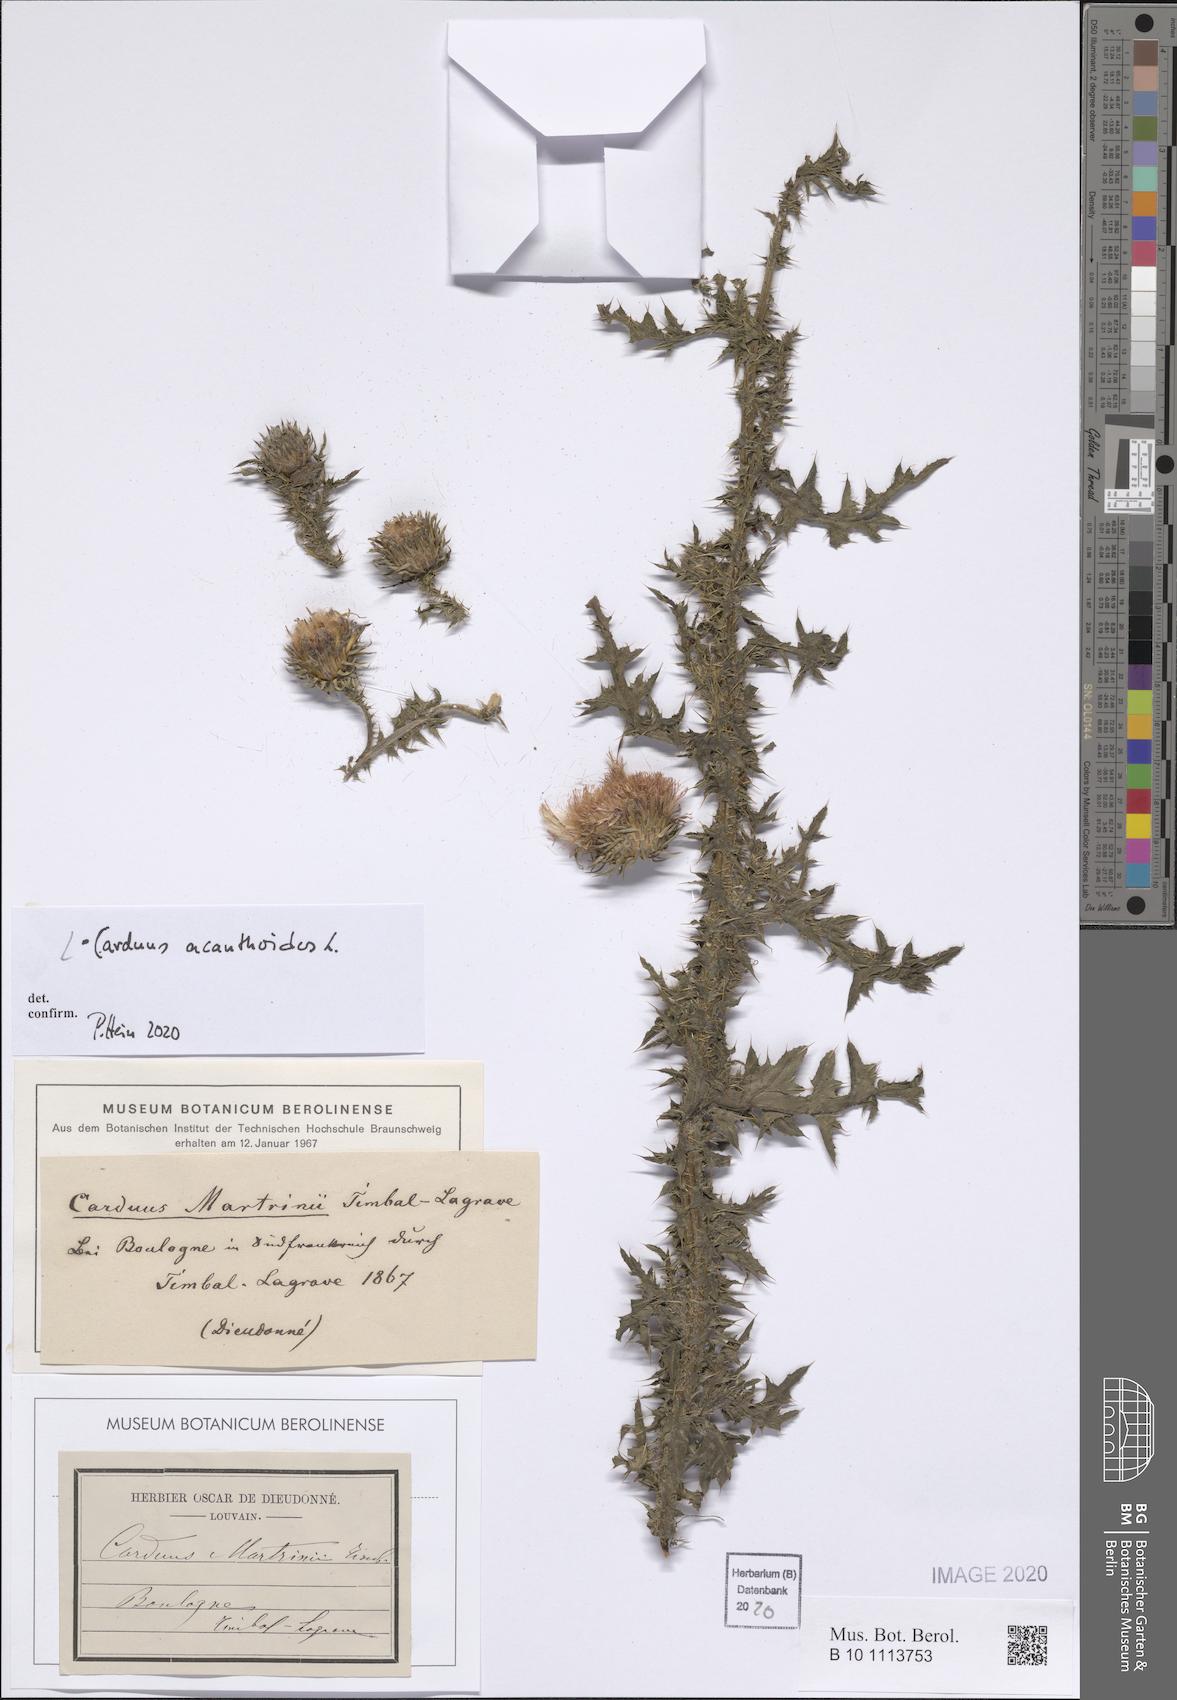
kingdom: Plantae
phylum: Tracheophyta
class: Magnoliopsida
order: Asterales
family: Asteraceae
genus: Carduus
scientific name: Carduus acanthoides
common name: Plumeless thistle
